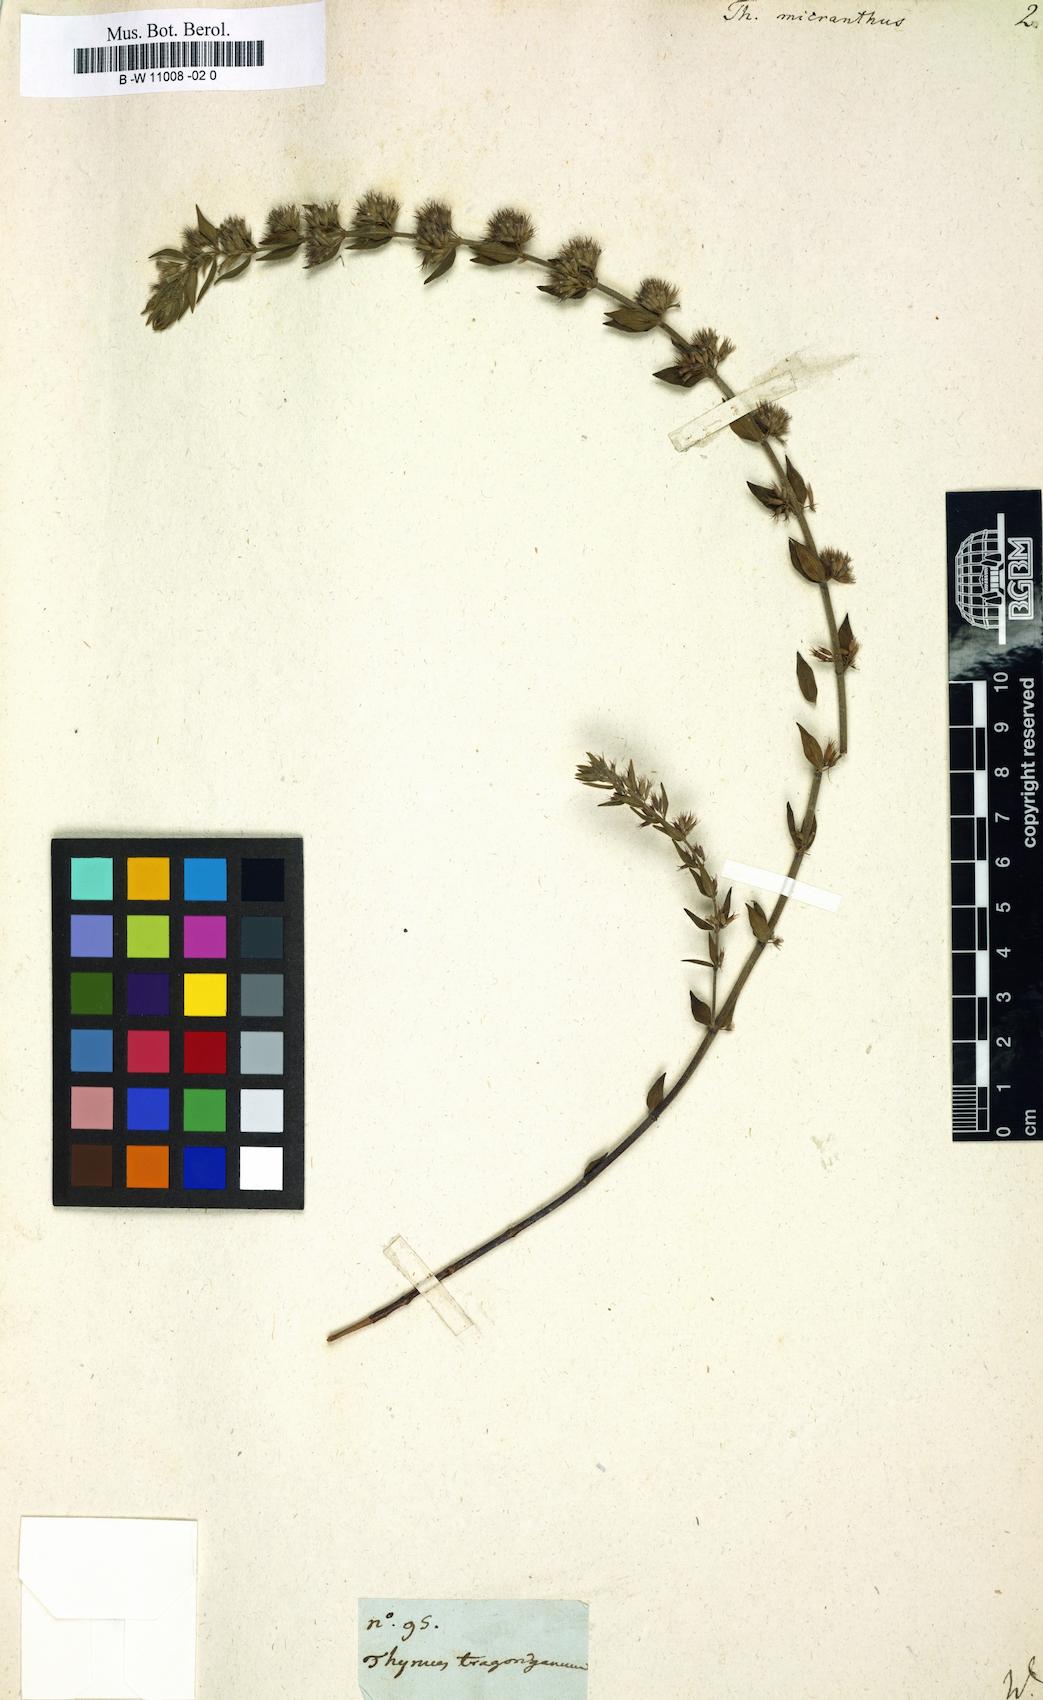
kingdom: Plantae
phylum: Tracheophyta
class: Magnoliopsida
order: Lamiales
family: Lamiaceae
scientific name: Lamiaceae
